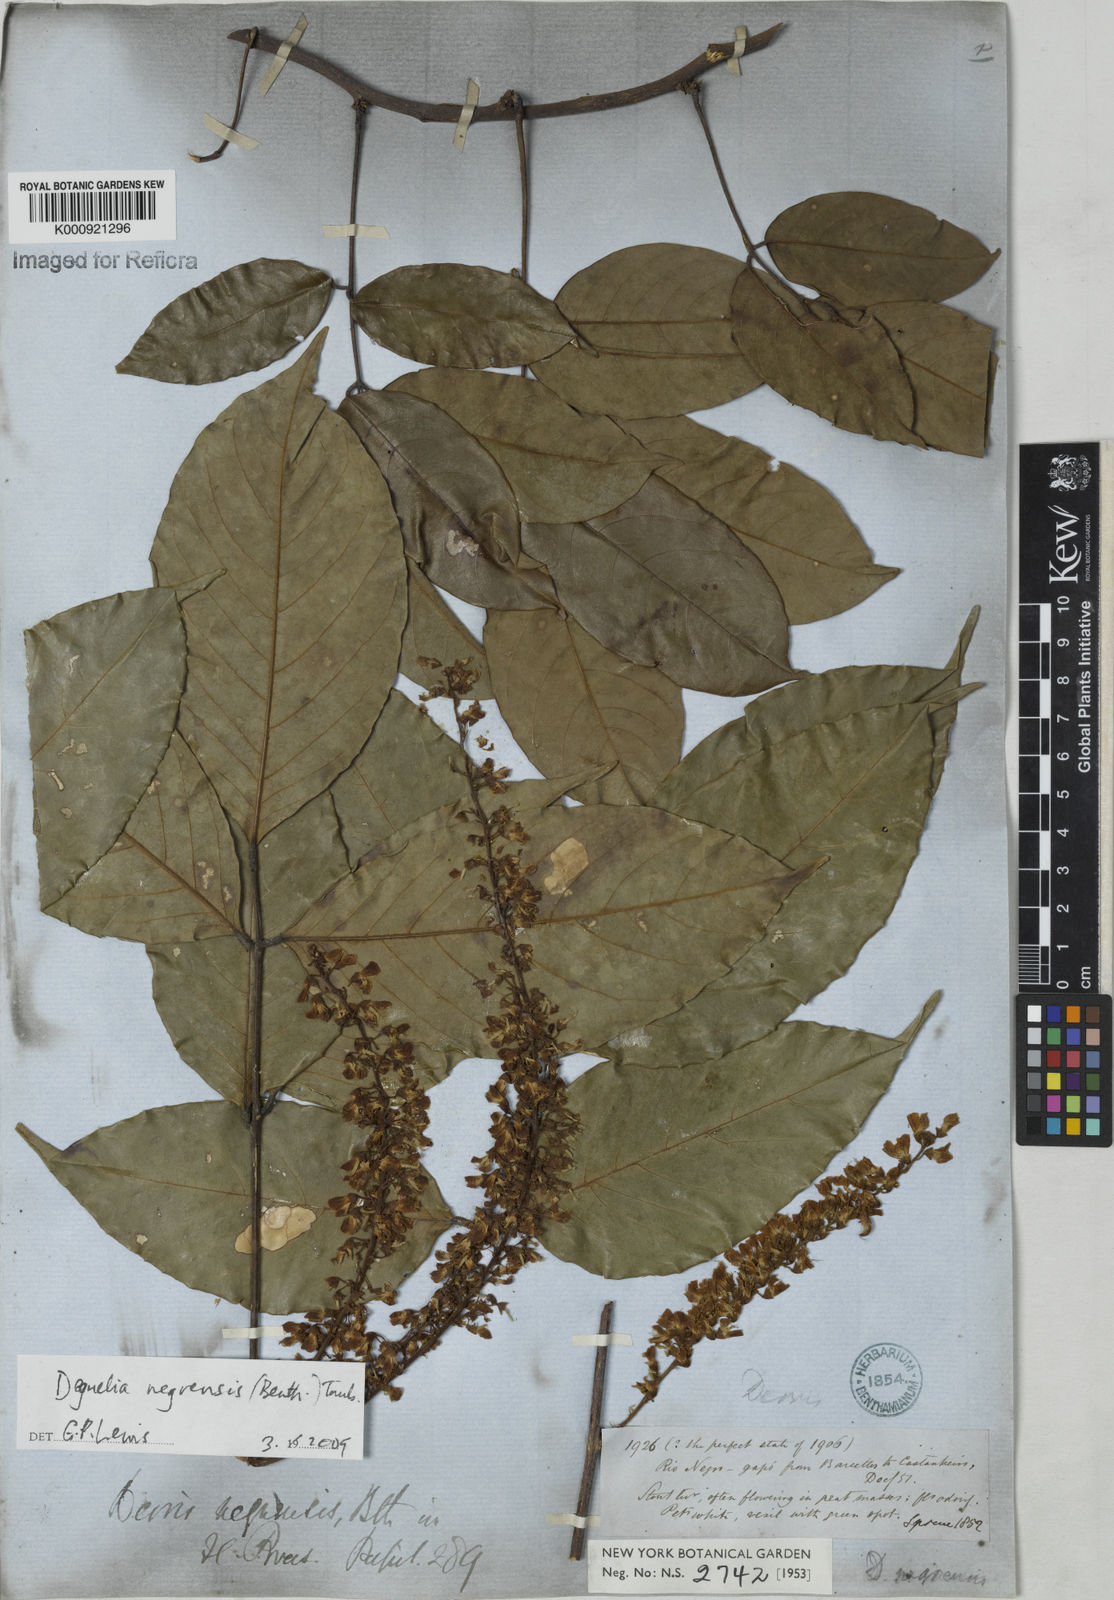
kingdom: Plantae
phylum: Tracheophyta
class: Magnoliopsida
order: Fabales
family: Fabaceae
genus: Deguelia
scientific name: Deguelia negrensis
